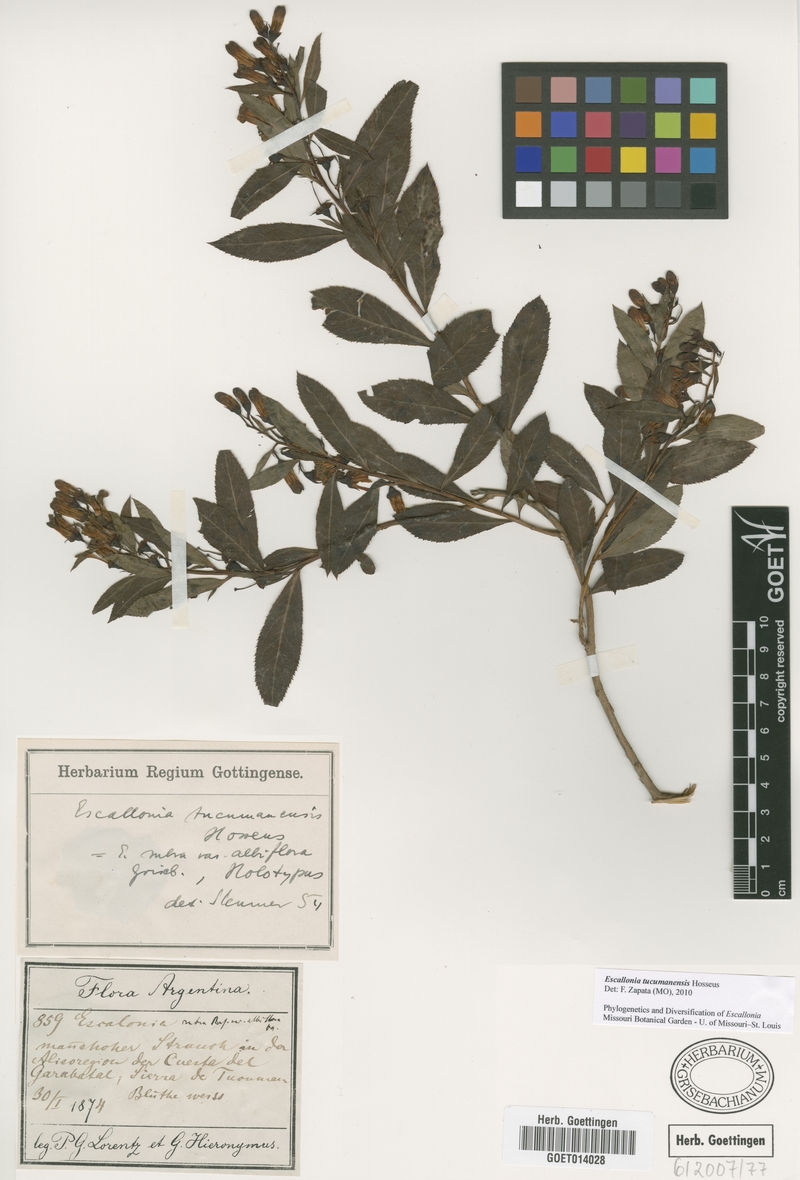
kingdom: Plantae
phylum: Tracheophyta
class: Magnoliopsida
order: Escalloniales
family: Escalloniaceae
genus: Escallonia
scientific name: Escallonia tucumanensis
